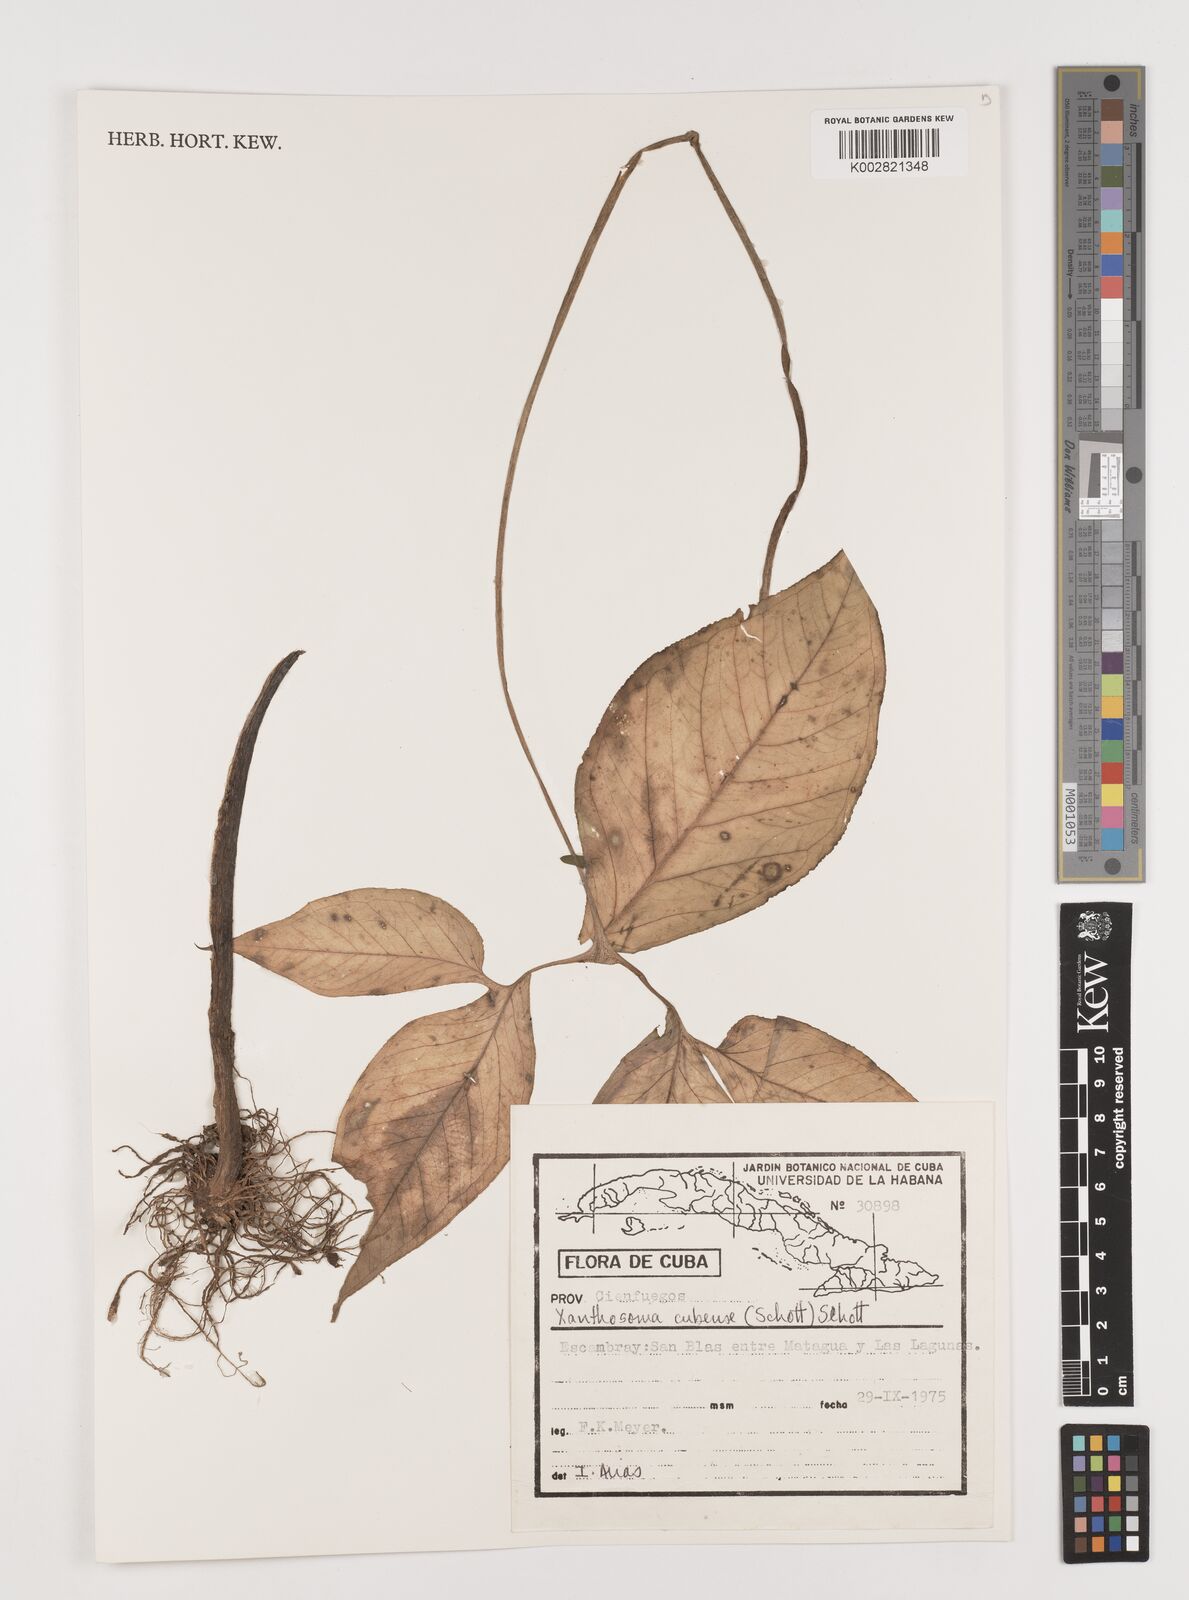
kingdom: Plantae
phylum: Tracheophyta
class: Liliopsida
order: Alismatales
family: Araceae
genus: Xanthosoma
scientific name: Xanthosoma cubense
